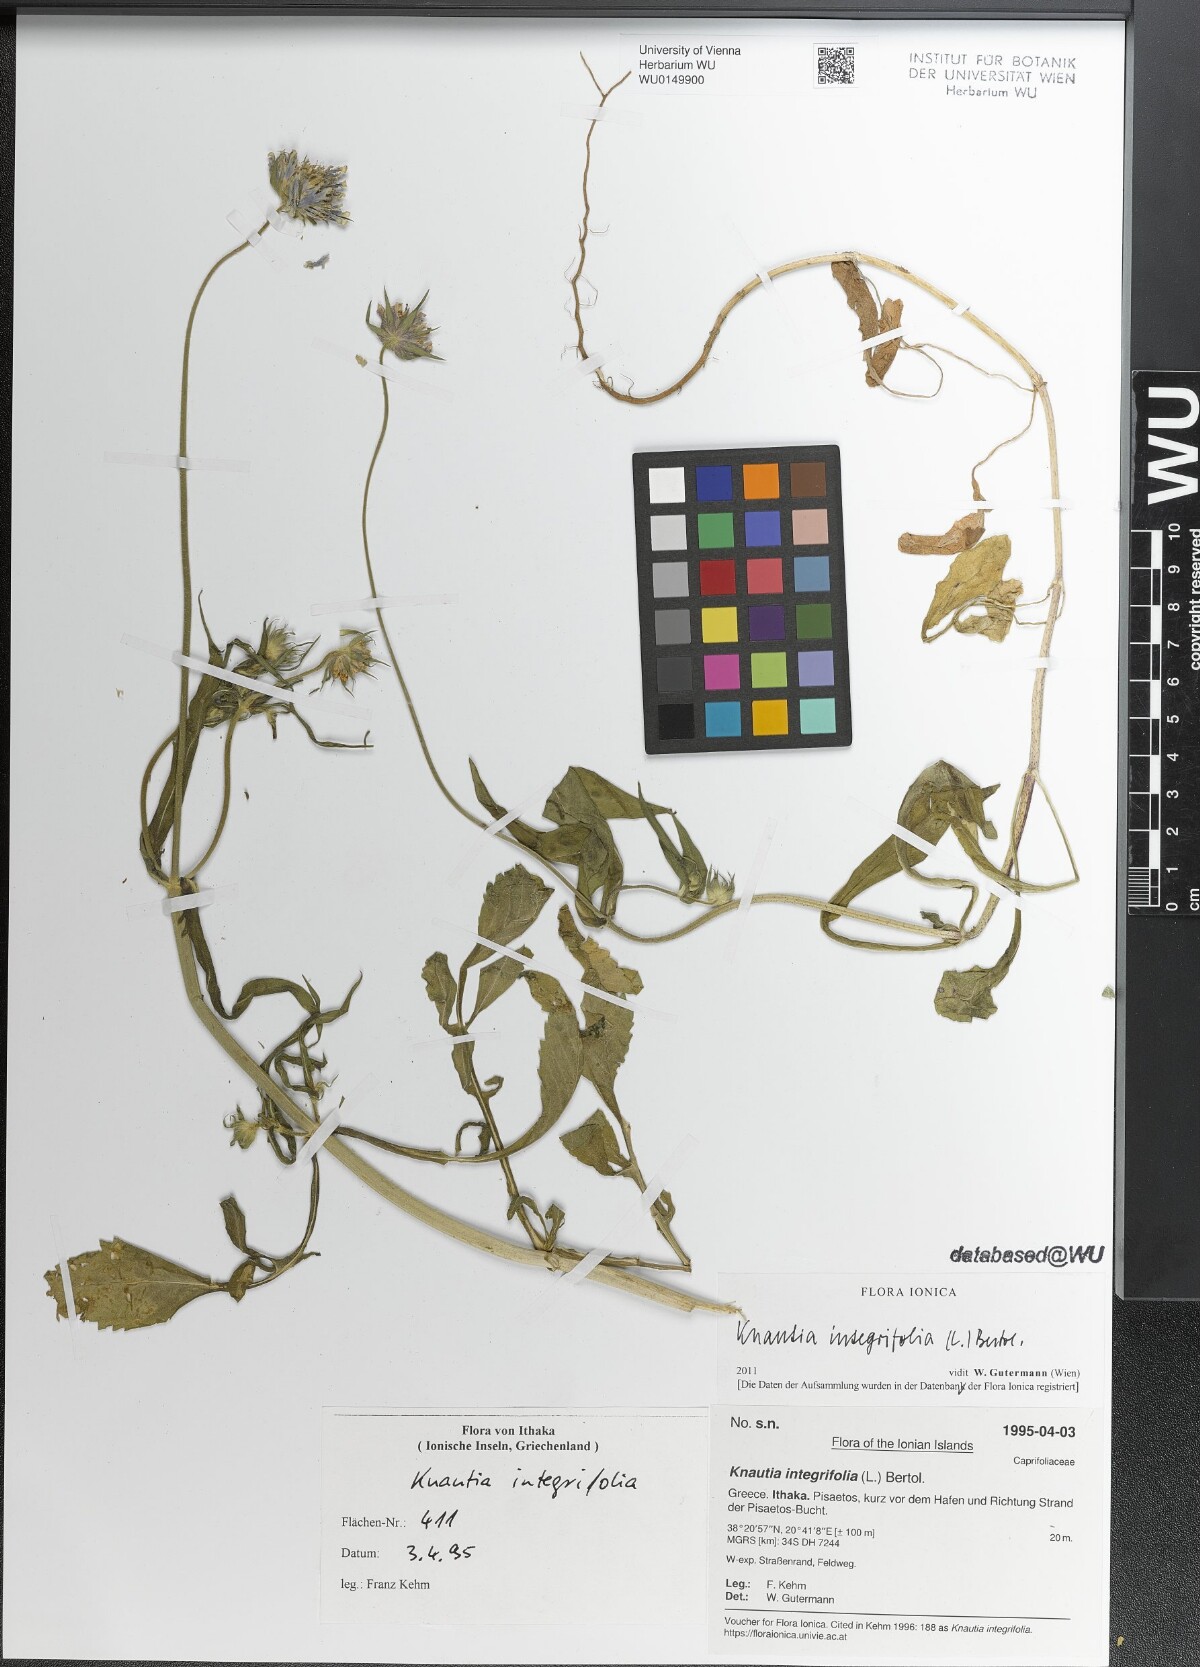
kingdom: Plantae
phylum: Tracheophyta
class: Magnoliopsida
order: Dipsacales
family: Caprifoliaceae
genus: Knautia
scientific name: Knautia integrifolia
